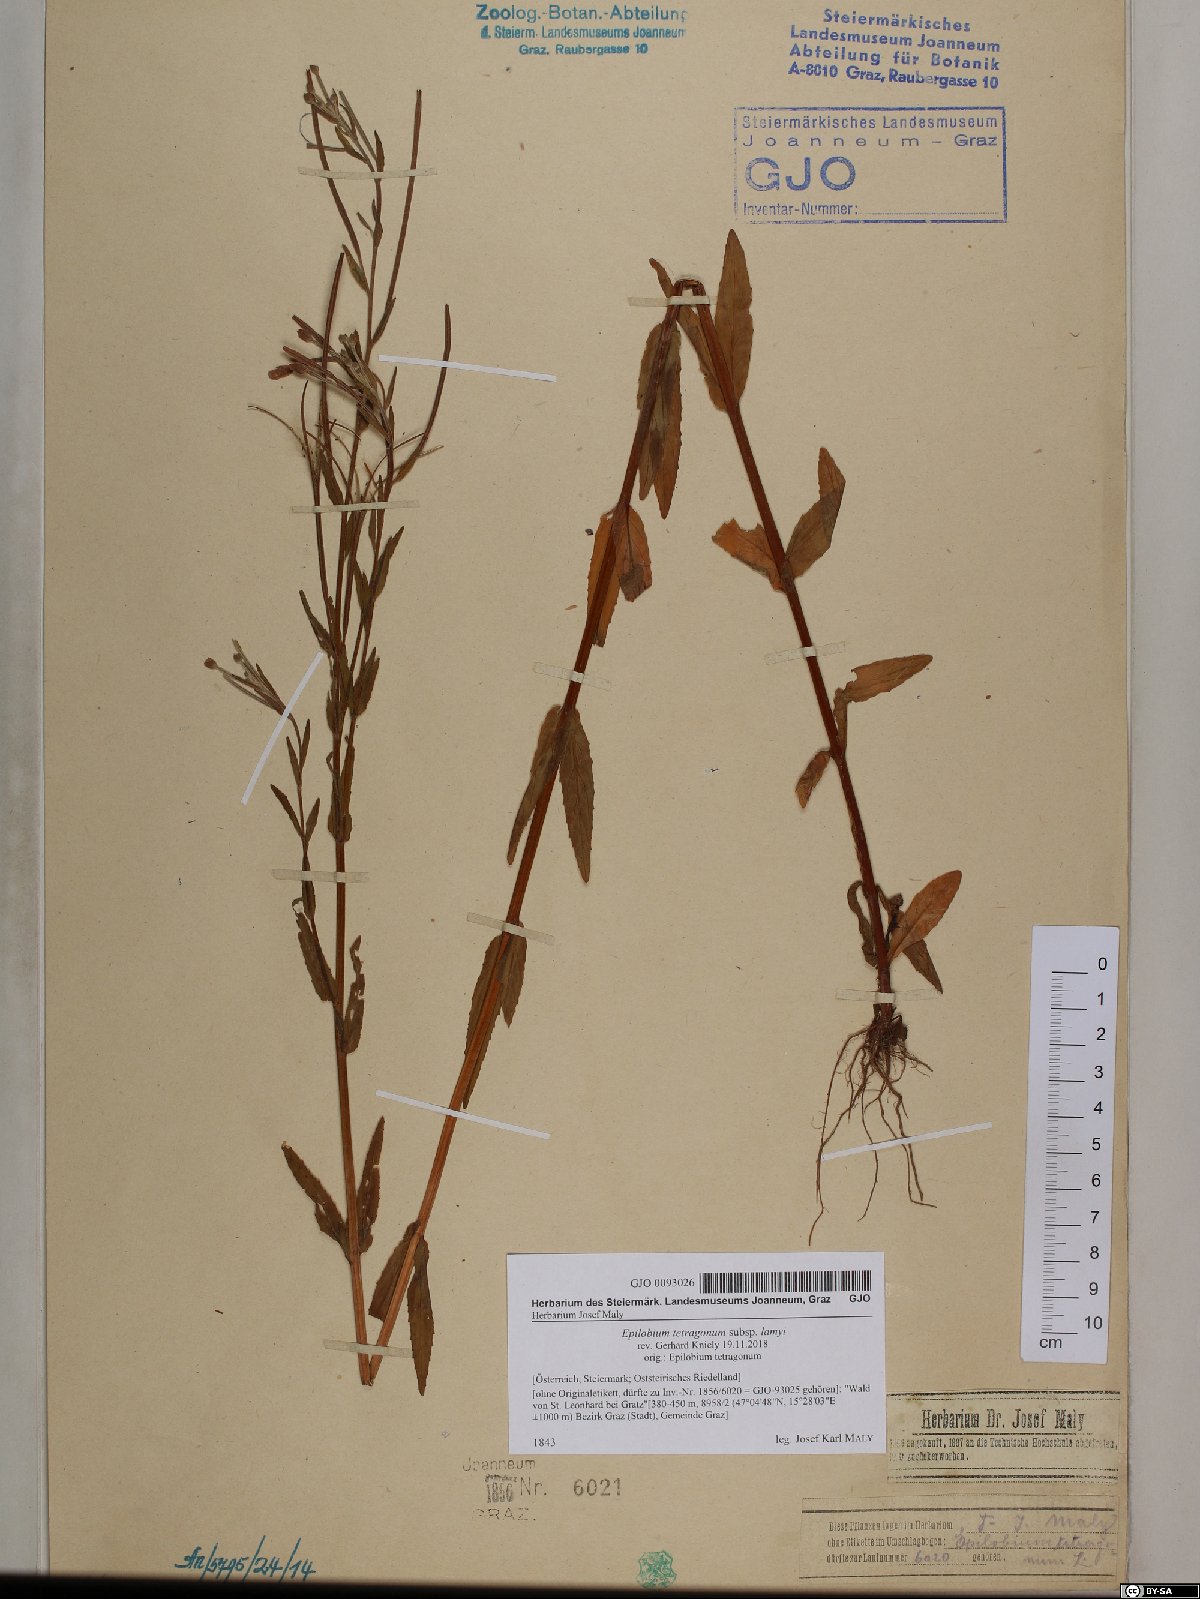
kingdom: Plantae
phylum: Tracheophyta
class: Magnoliopsida
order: Myrtales
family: Onagraceae
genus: Epilobium
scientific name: Epilobium lamyi
